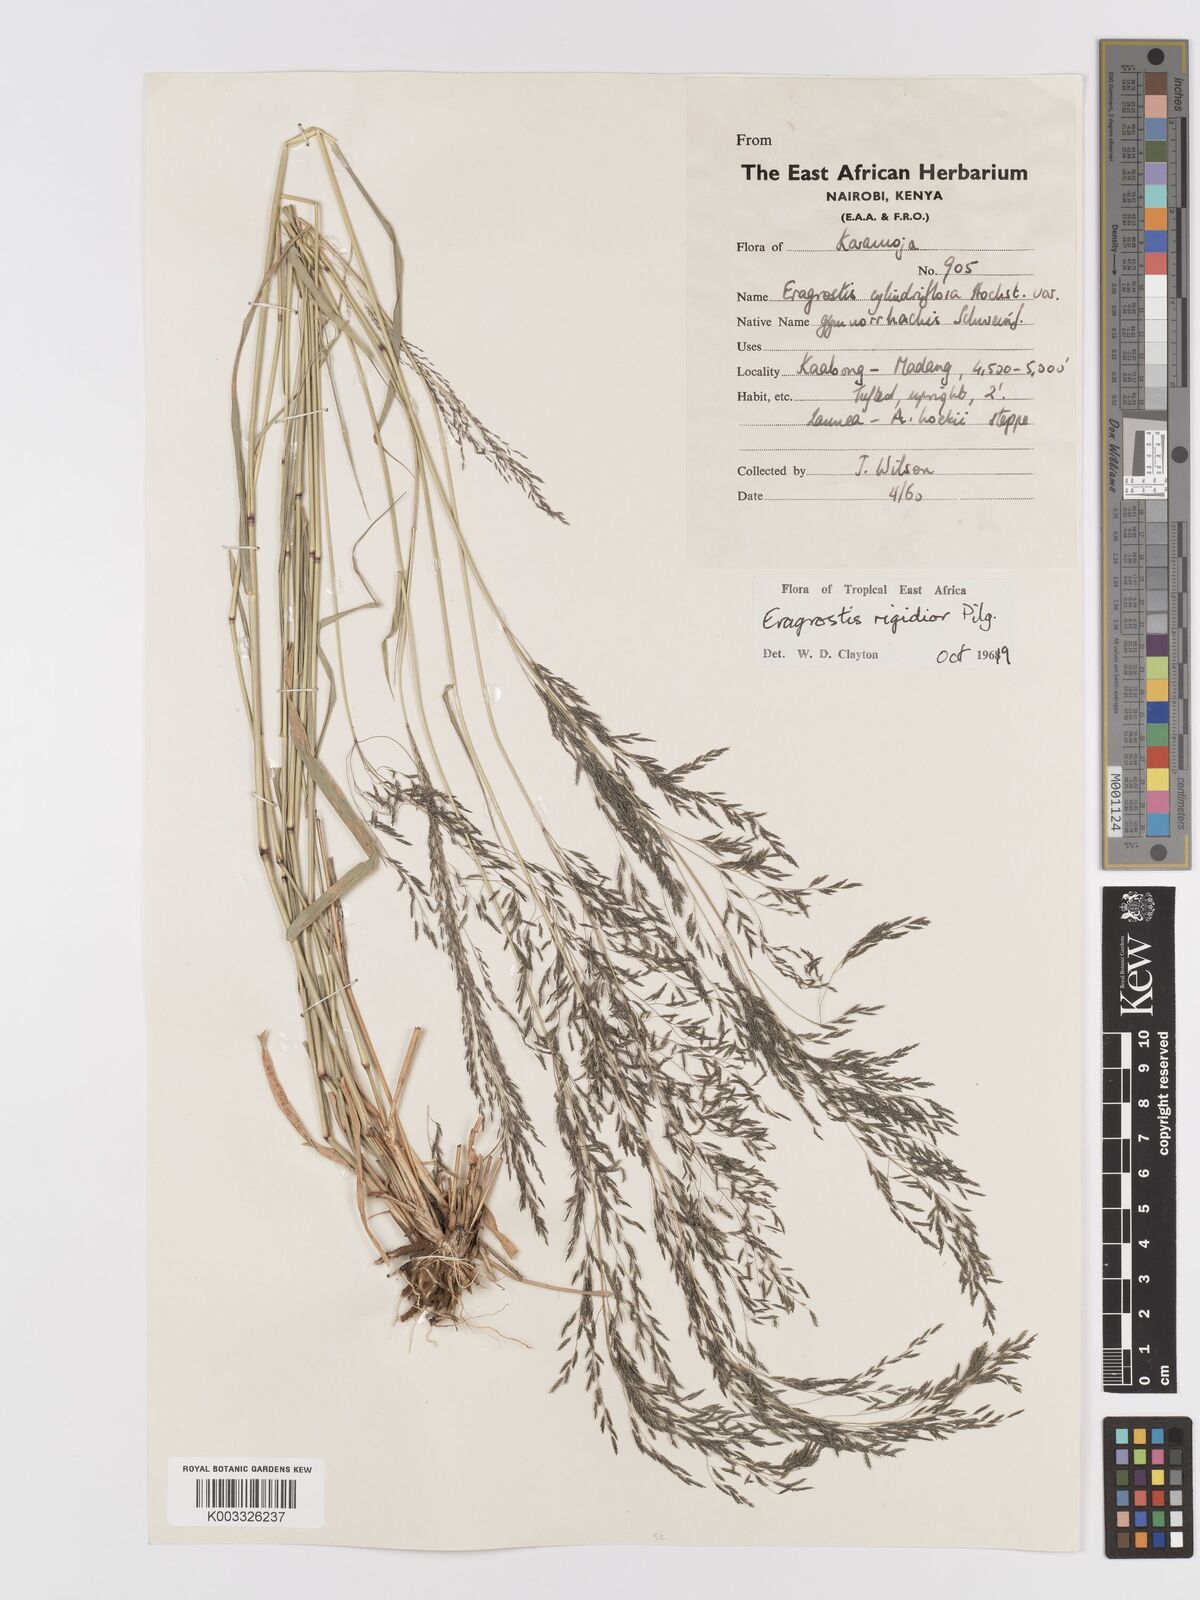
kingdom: Plantae
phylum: Tracheophyta
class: Liliopsida
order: Poales
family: Poaceae
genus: Eragrostis
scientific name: Eragrostis cylindriflora
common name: Cylinderflower lovegrass
